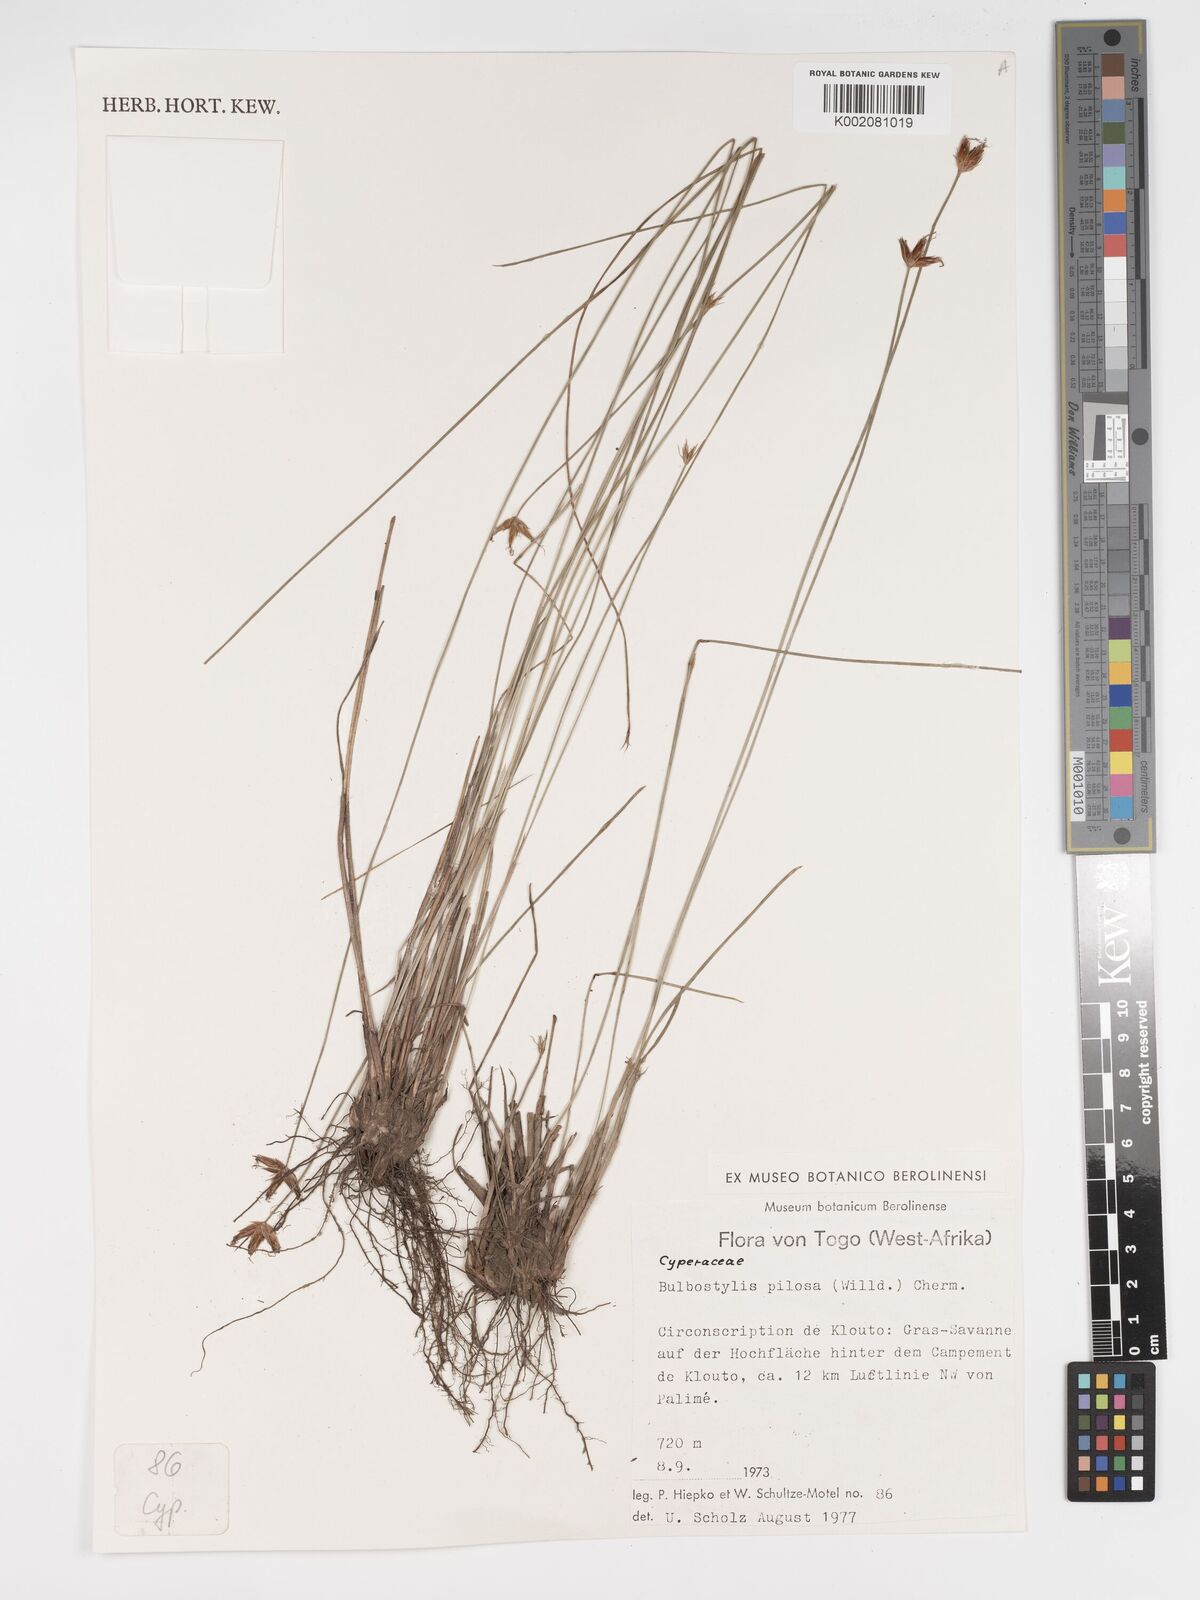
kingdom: Plantae
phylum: Tracheophyta
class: Liliopsida
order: Poales
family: Cyperaceae
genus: Bulbostylis
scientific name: Bulbostylis pilosa
